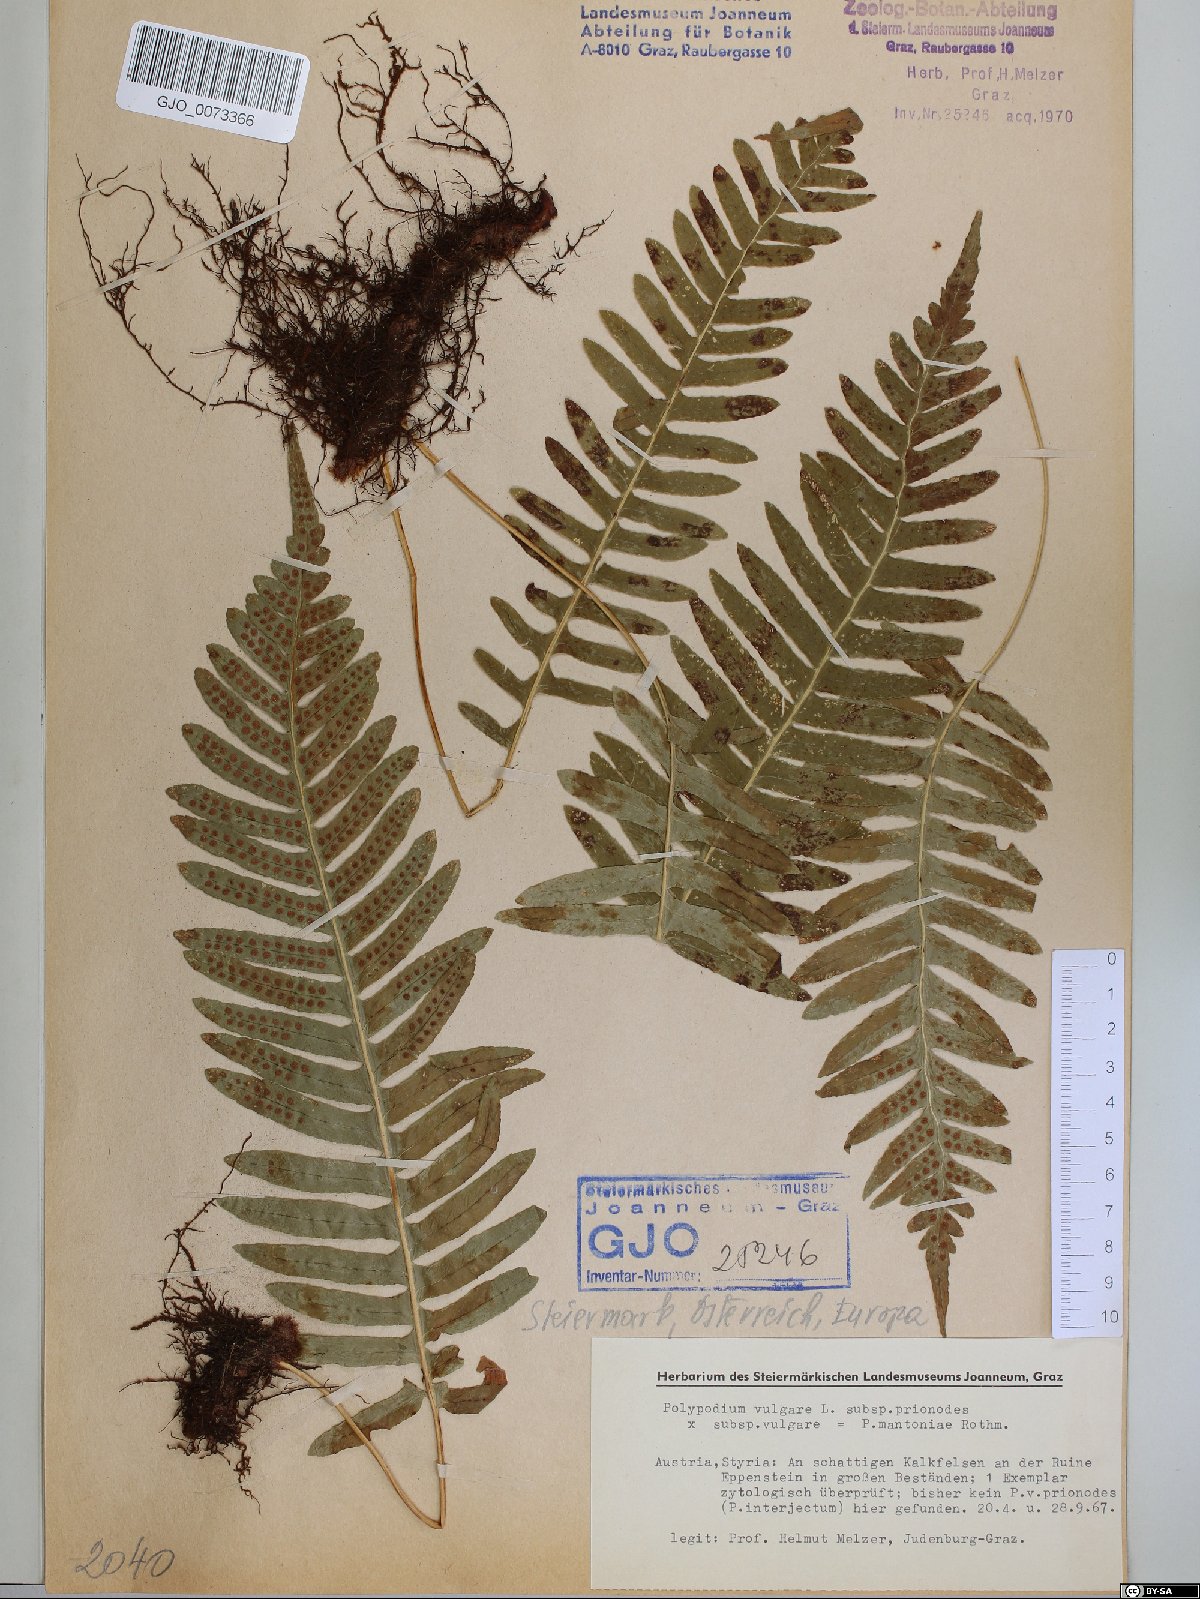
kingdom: Plantae
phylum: Tracheophyta
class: Polypodiopsida
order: Polypodiales
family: Polypodiaceae
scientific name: Polypodiaceae
